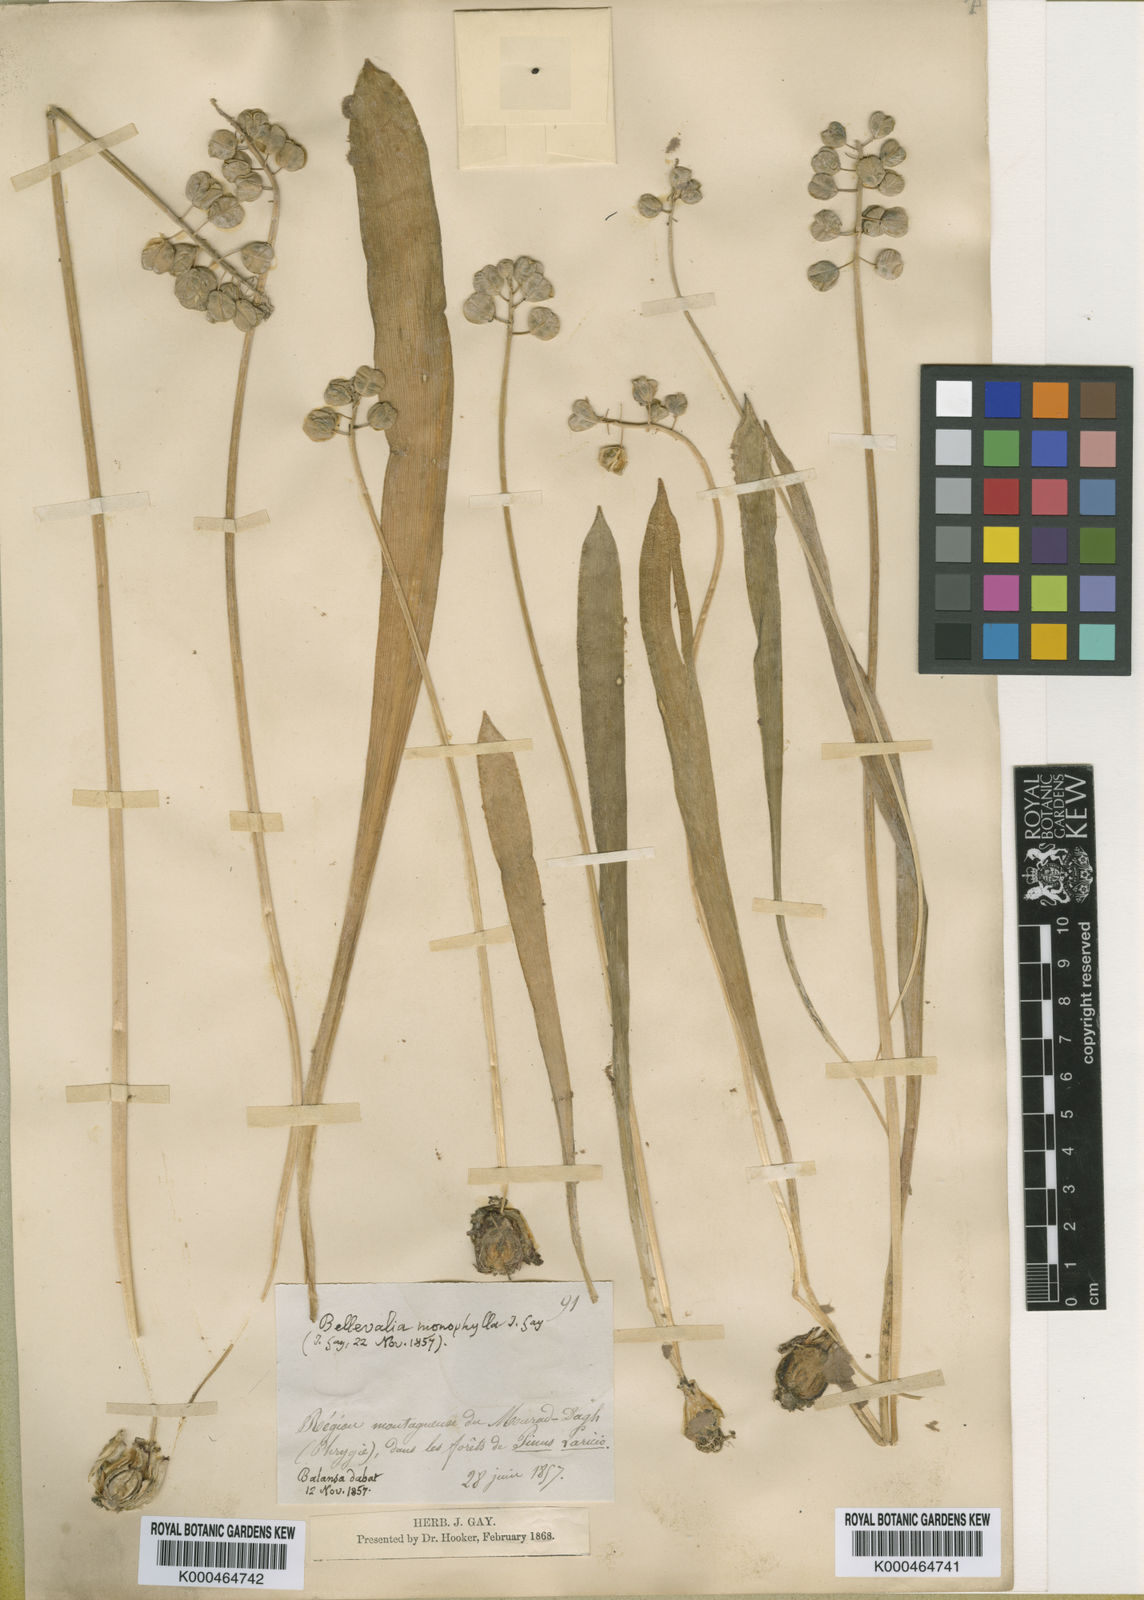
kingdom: Plantae
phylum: Tracheophyta
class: Liliopsida
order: Asparagales
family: Asparagaceae
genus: Muscari
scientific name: Muscari latifolium
